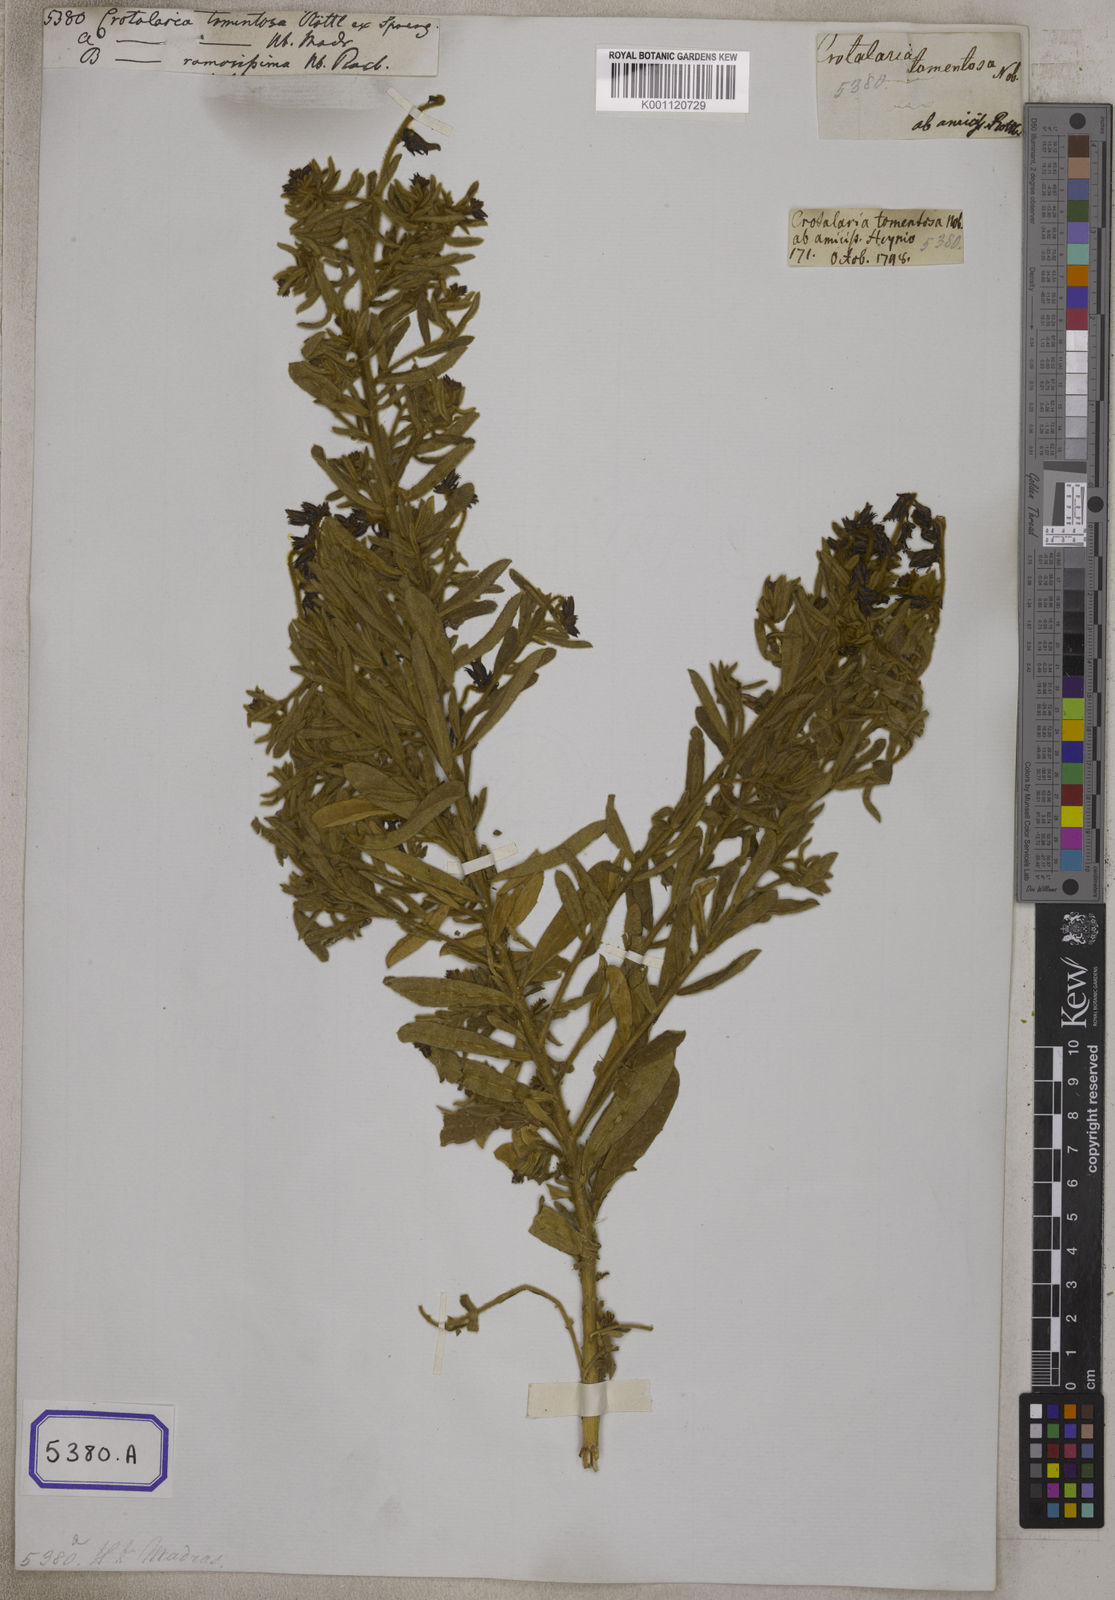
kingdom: Plantae
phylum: Tracheophyta
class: Magnoliopsida
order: Fabales
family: Fabaceae
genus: Crotalaria
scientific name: Crotalaria ramosissima
